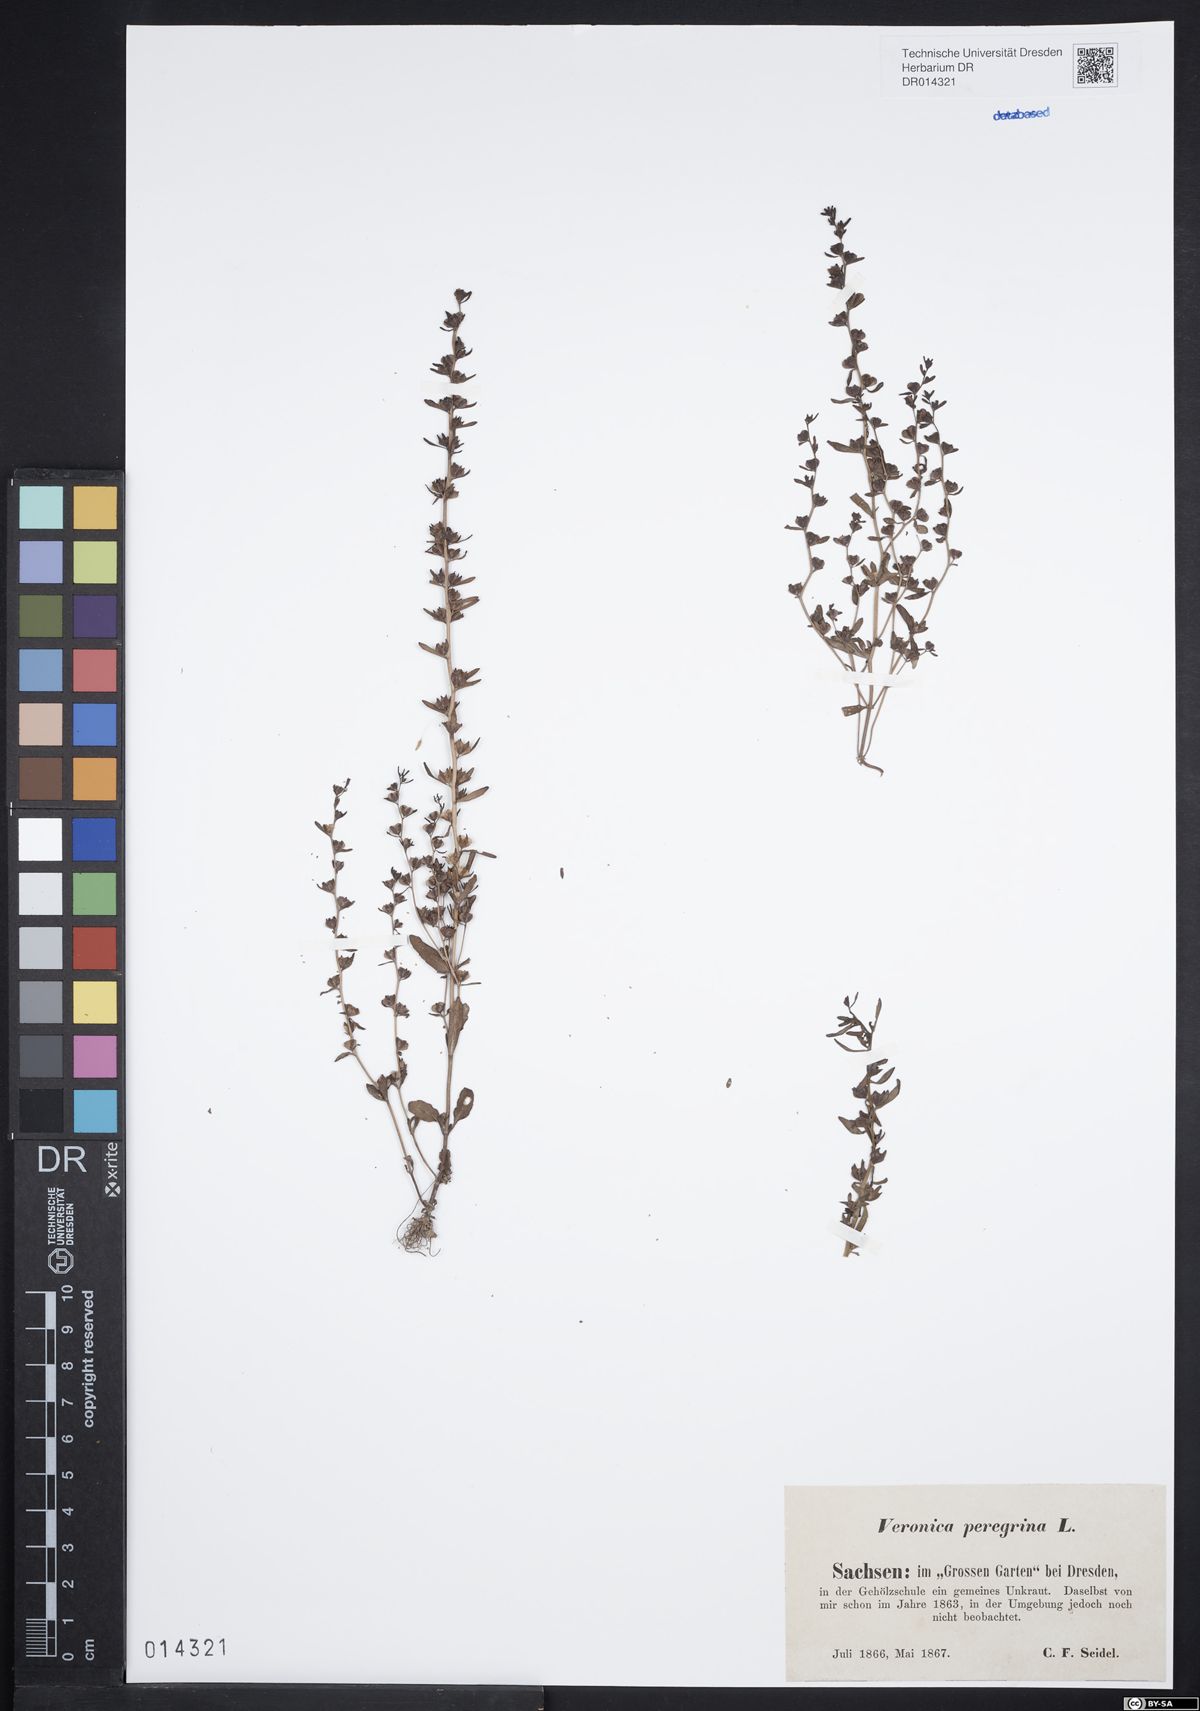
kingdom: Plantae
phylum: Tracheophyta
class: Magnoliopsida
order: Lamiales
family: Plantaginaceae
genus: Veronica
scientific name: Veronica peregrina
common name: Neckweed
